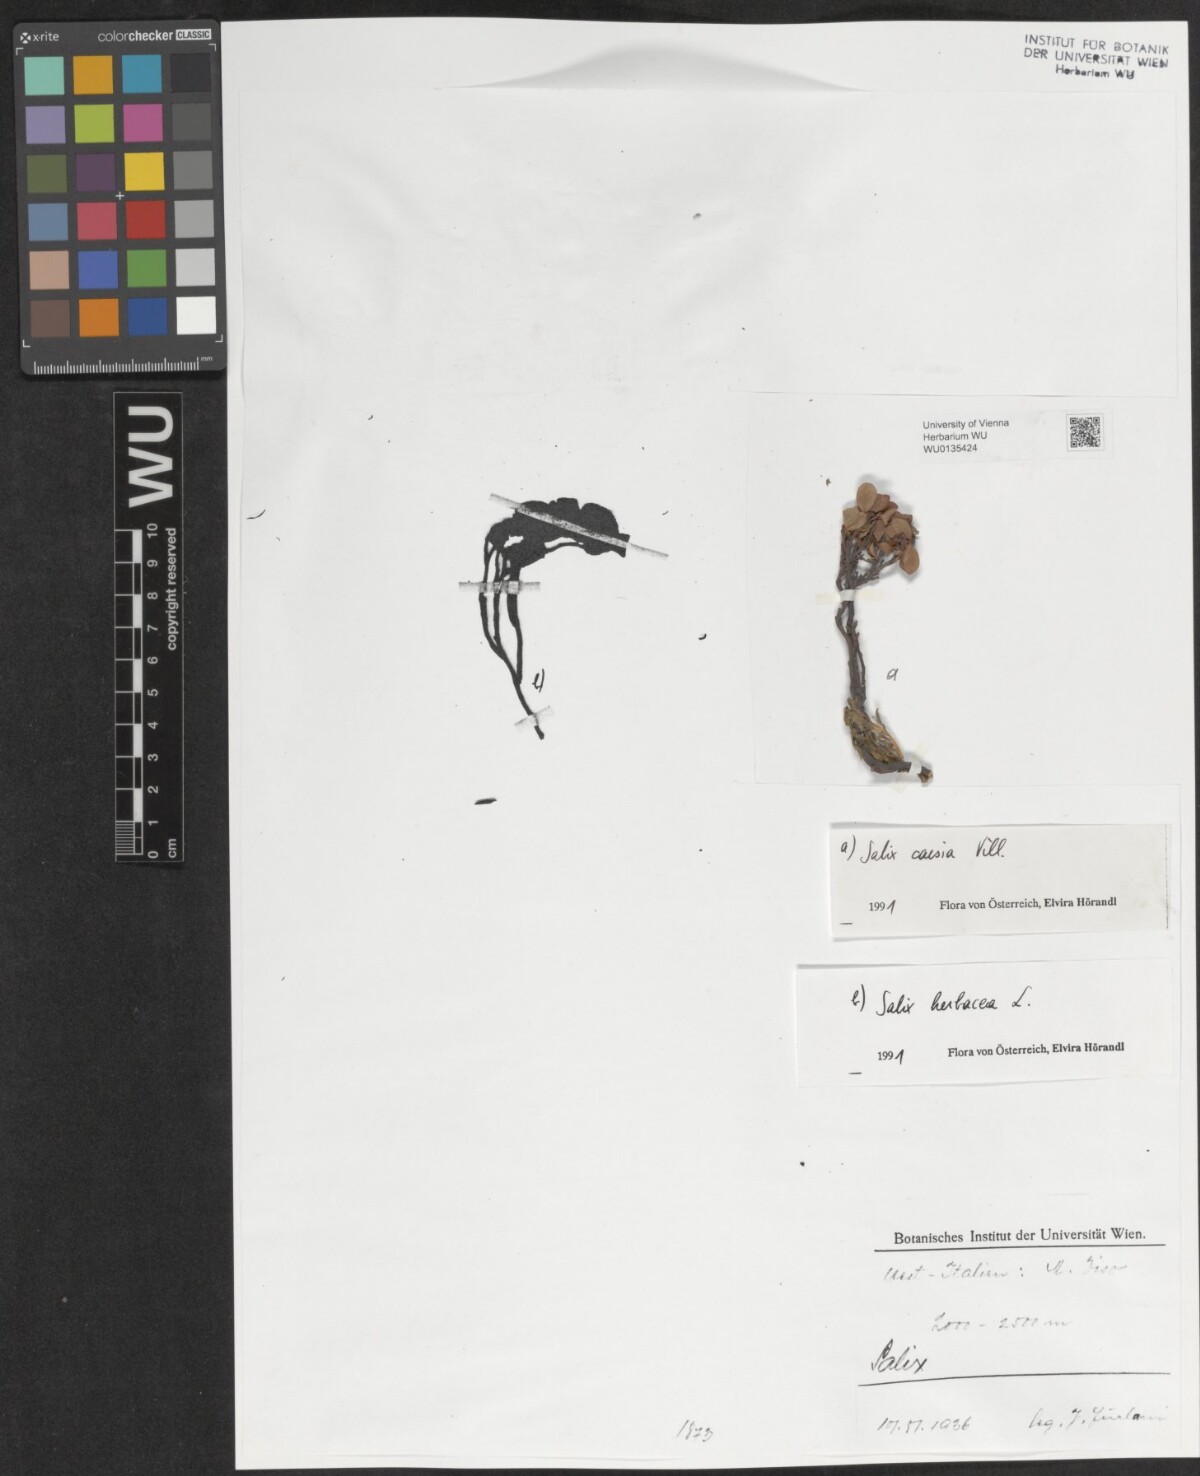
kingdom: Plantae
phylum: Tracheophyta
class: Magnoliopsida
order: Malpighiales
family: Salicaceae
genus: Salix
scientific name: Salix caesia
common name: Blue willow
